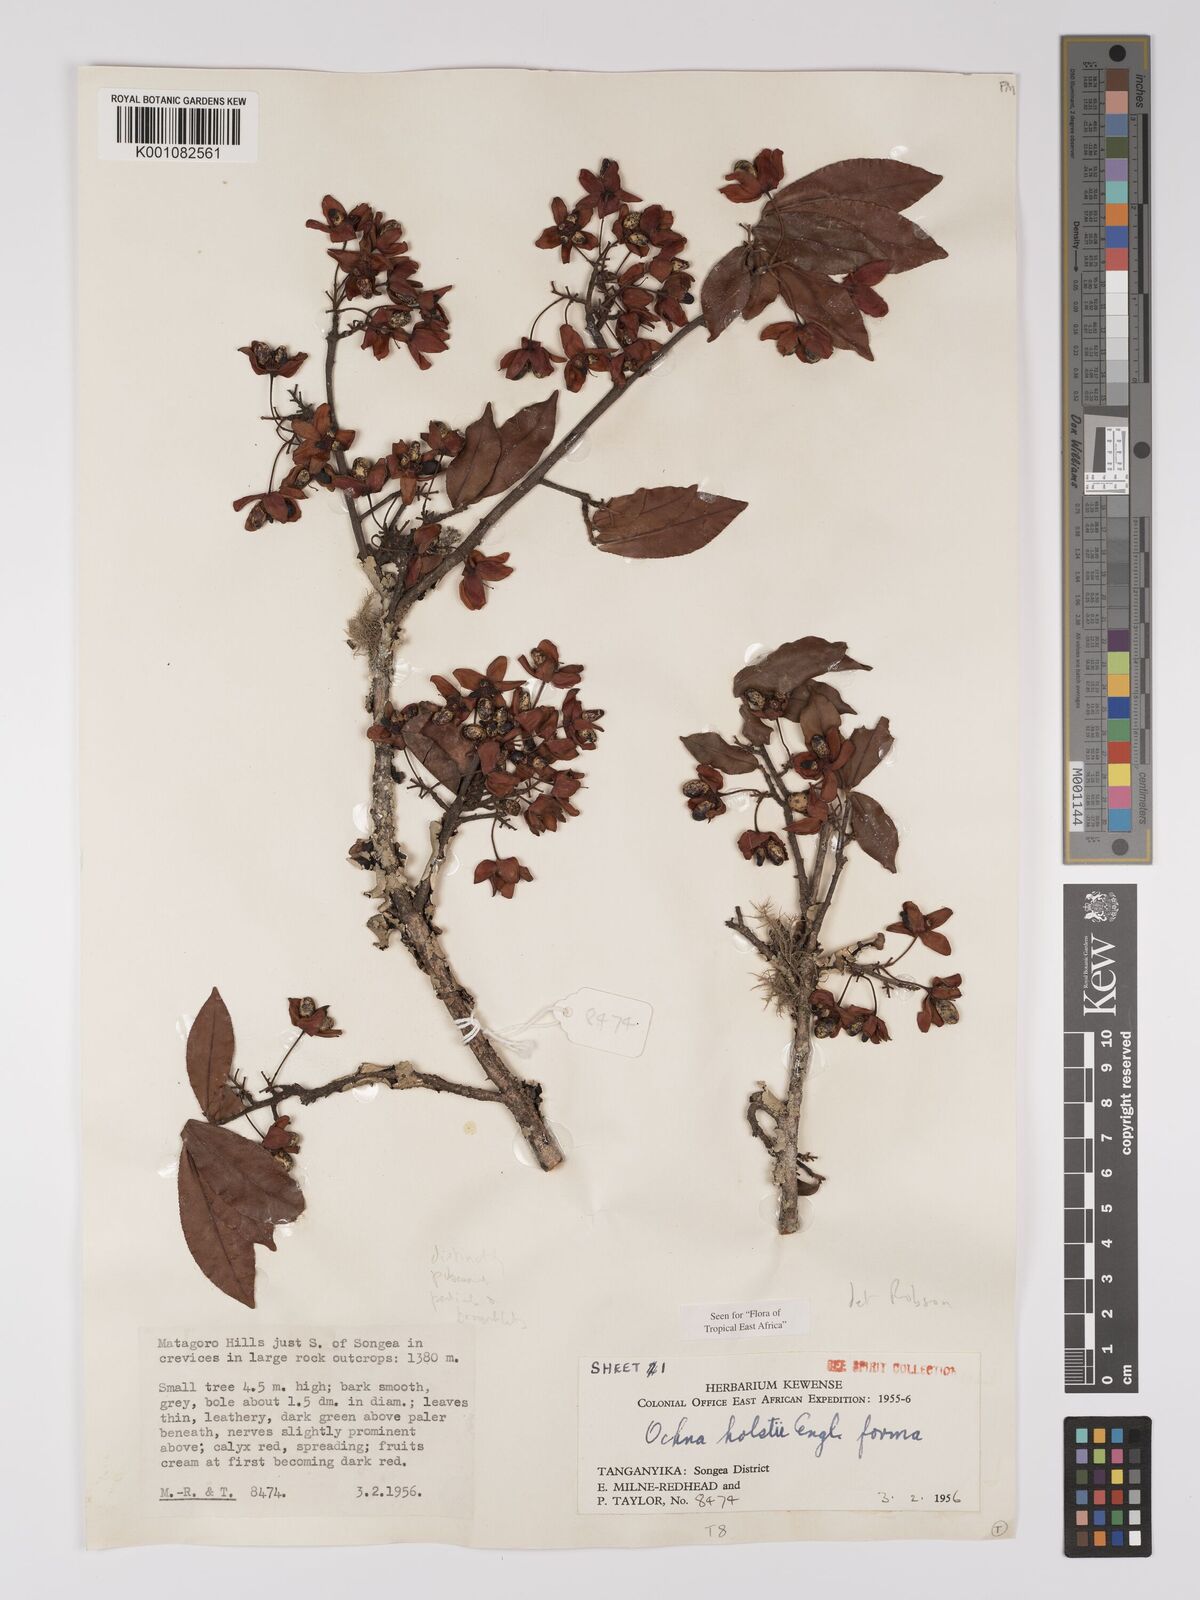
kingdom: Plantae
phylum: Tracheophyta
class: Magnoliopsida
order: Malpighiales
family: Ochnaceae
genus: Ochna
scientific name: Ochna holstii
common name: Red ironwood
